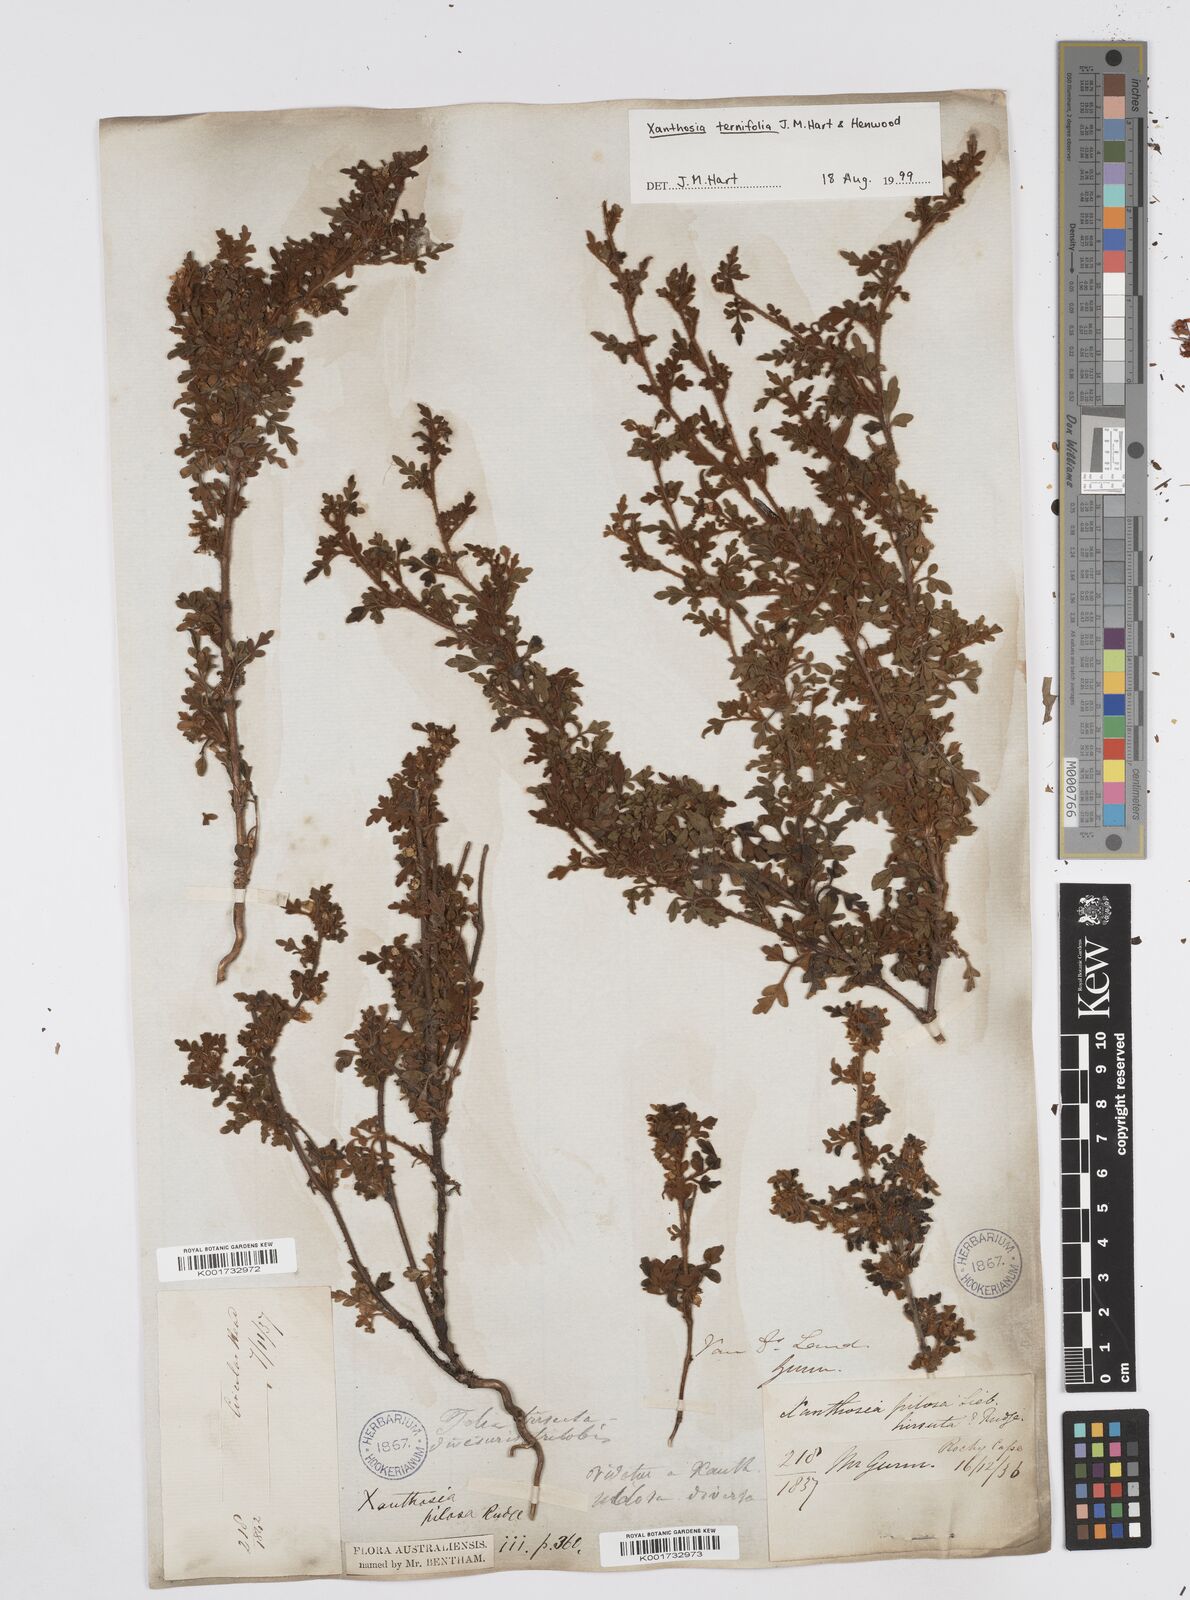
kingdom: Plantae
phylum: Tracheophyta
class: Magnoliopsida
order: Apiales
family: Apiaceae
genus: Xanthosia
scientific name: Xanthosia ternifolia
